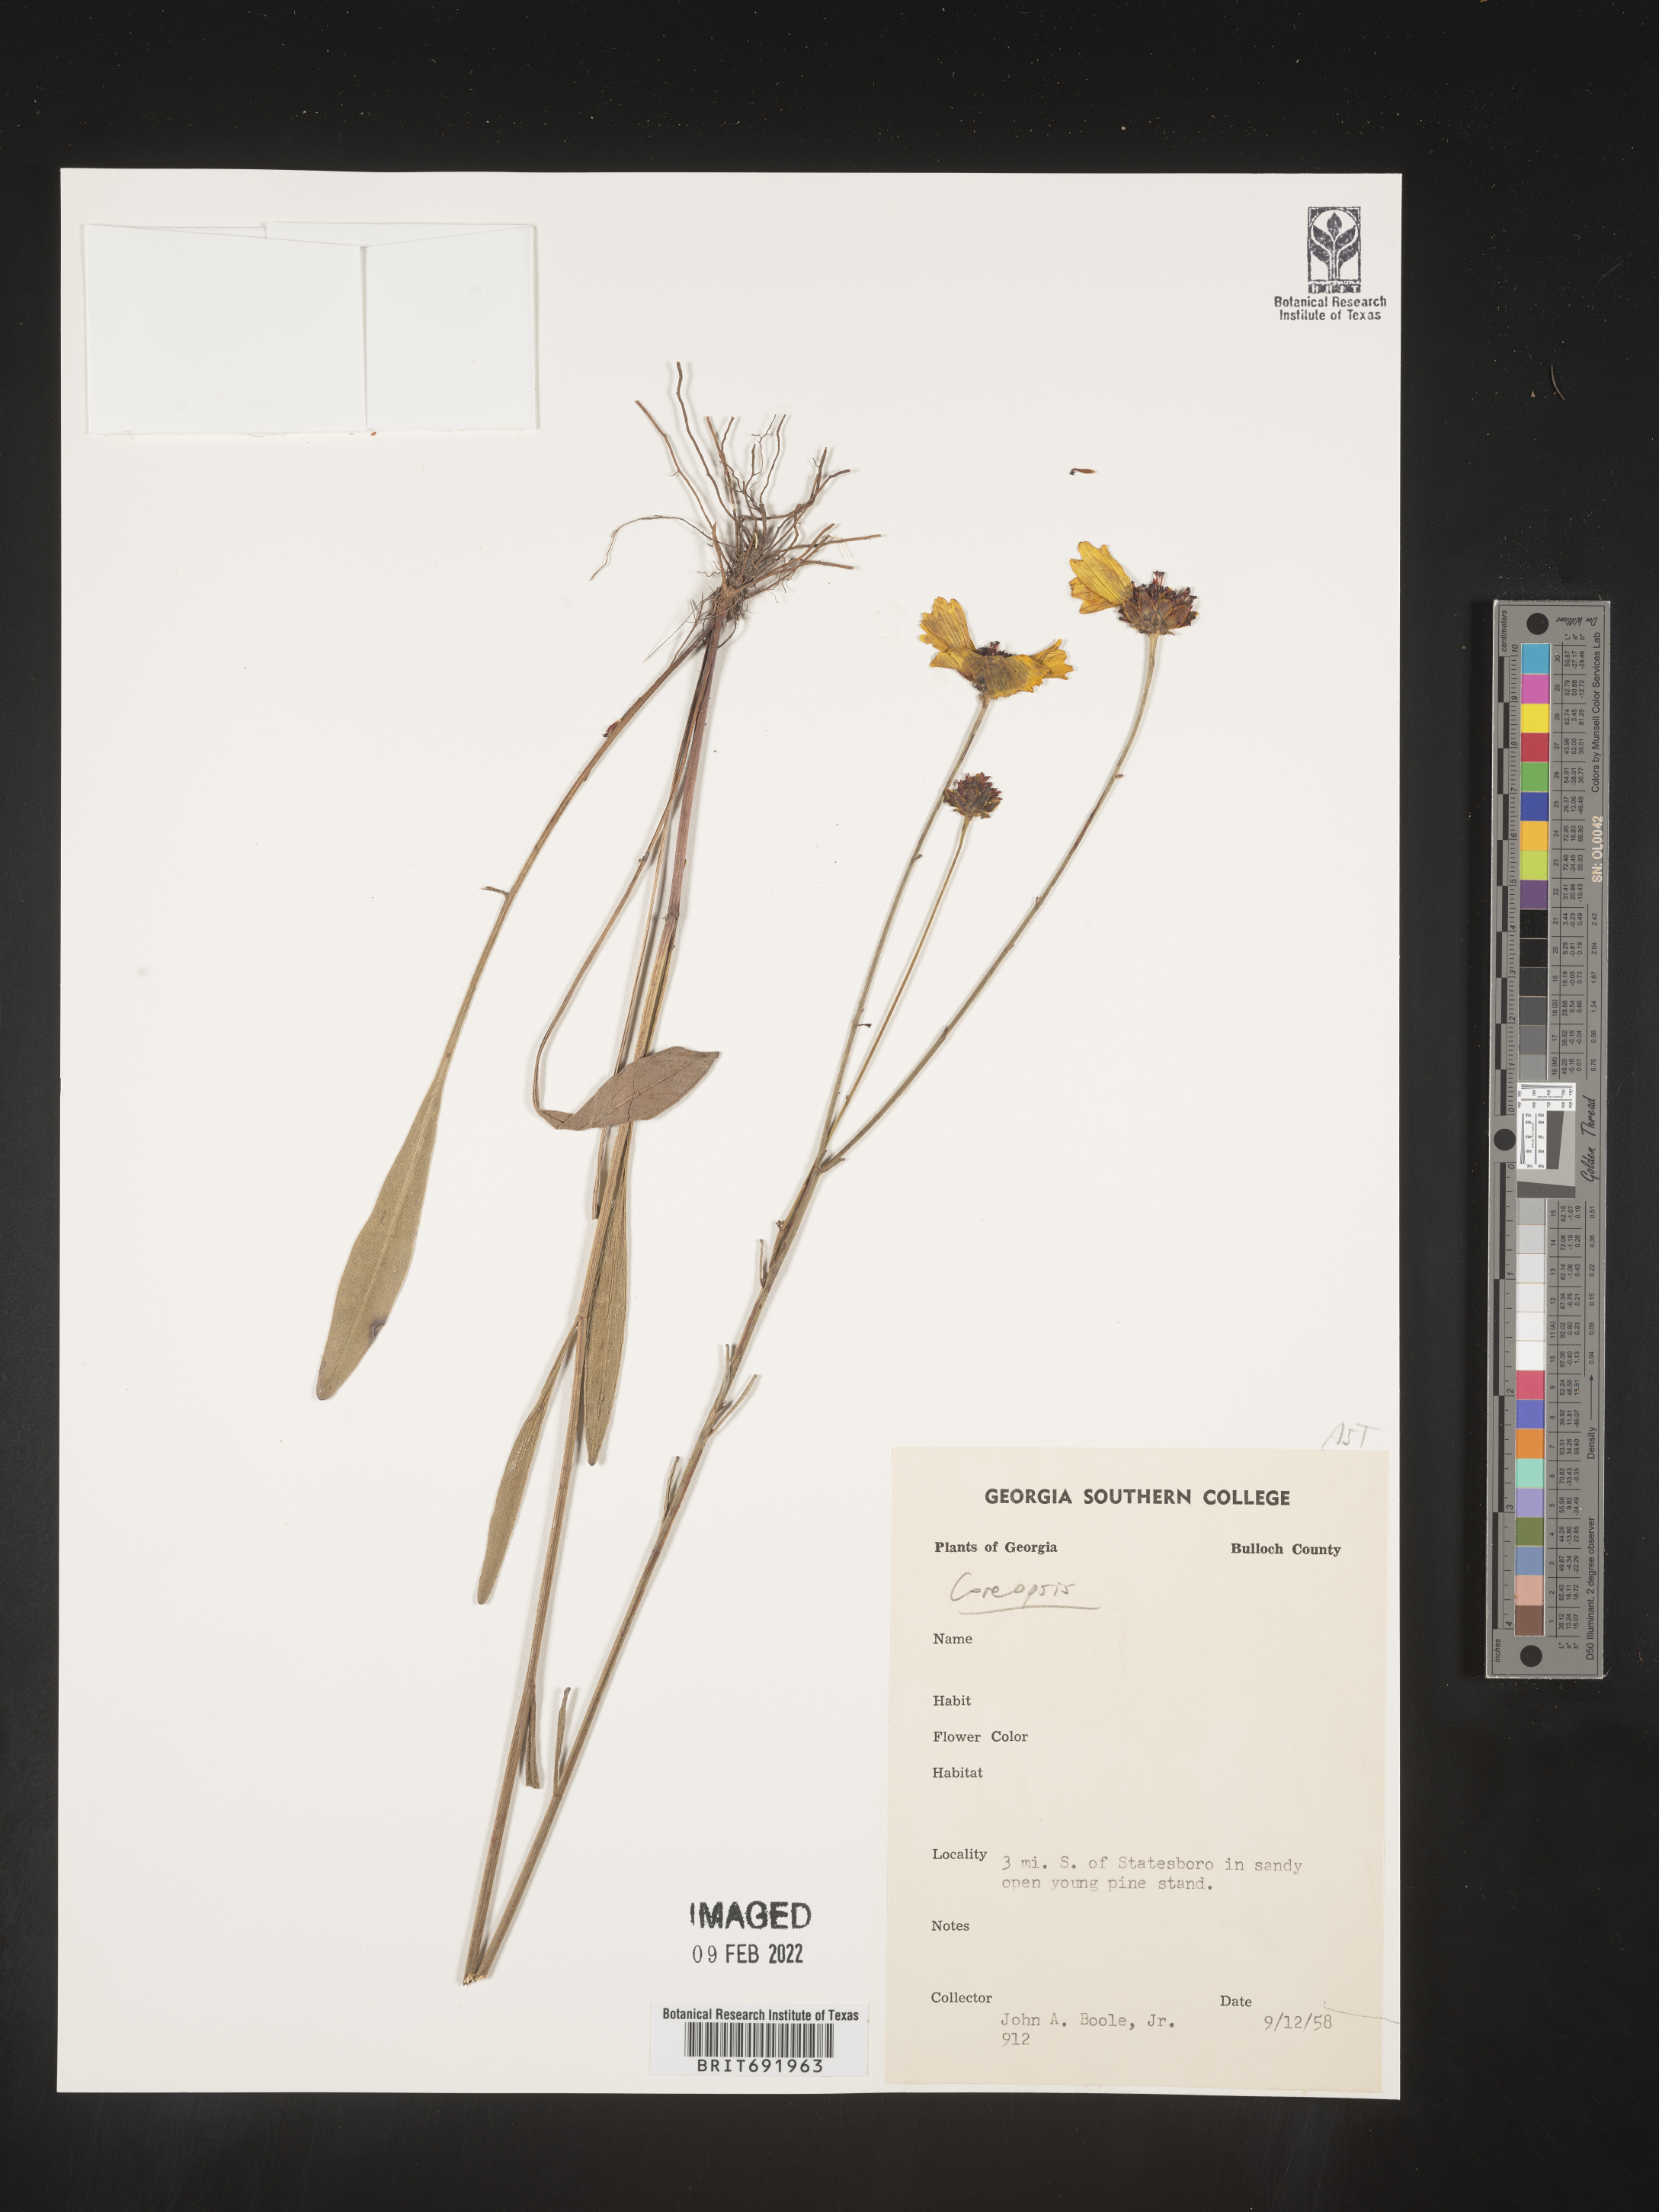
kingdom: Plantae
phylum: Tracheophyta
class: Magnoliopsida
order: Asterales
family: Asteraceae
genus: Coreopsis
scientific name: Coreopsis
